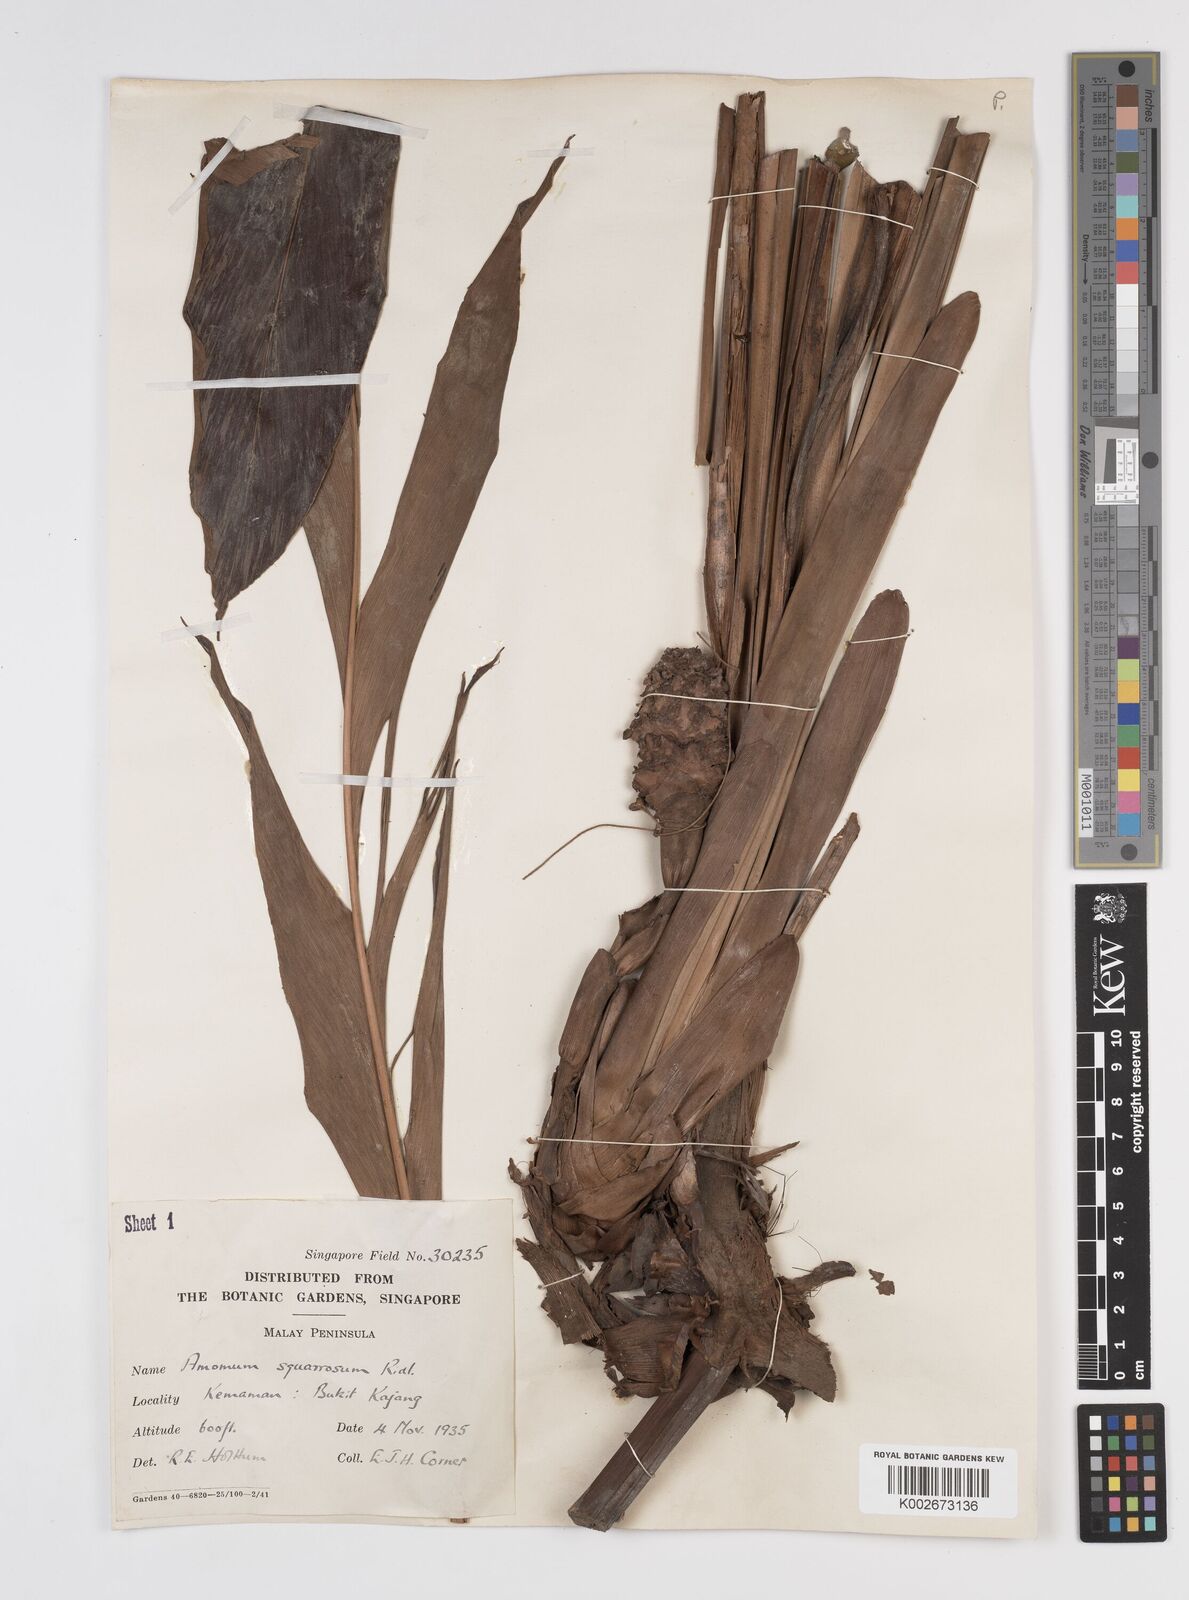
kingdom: Plantae
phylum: Tracheophyta
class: Liliopsida
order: Zingiberales
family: Zingiberaceae
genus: Conamomum
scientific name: Conamomum squarrosum
